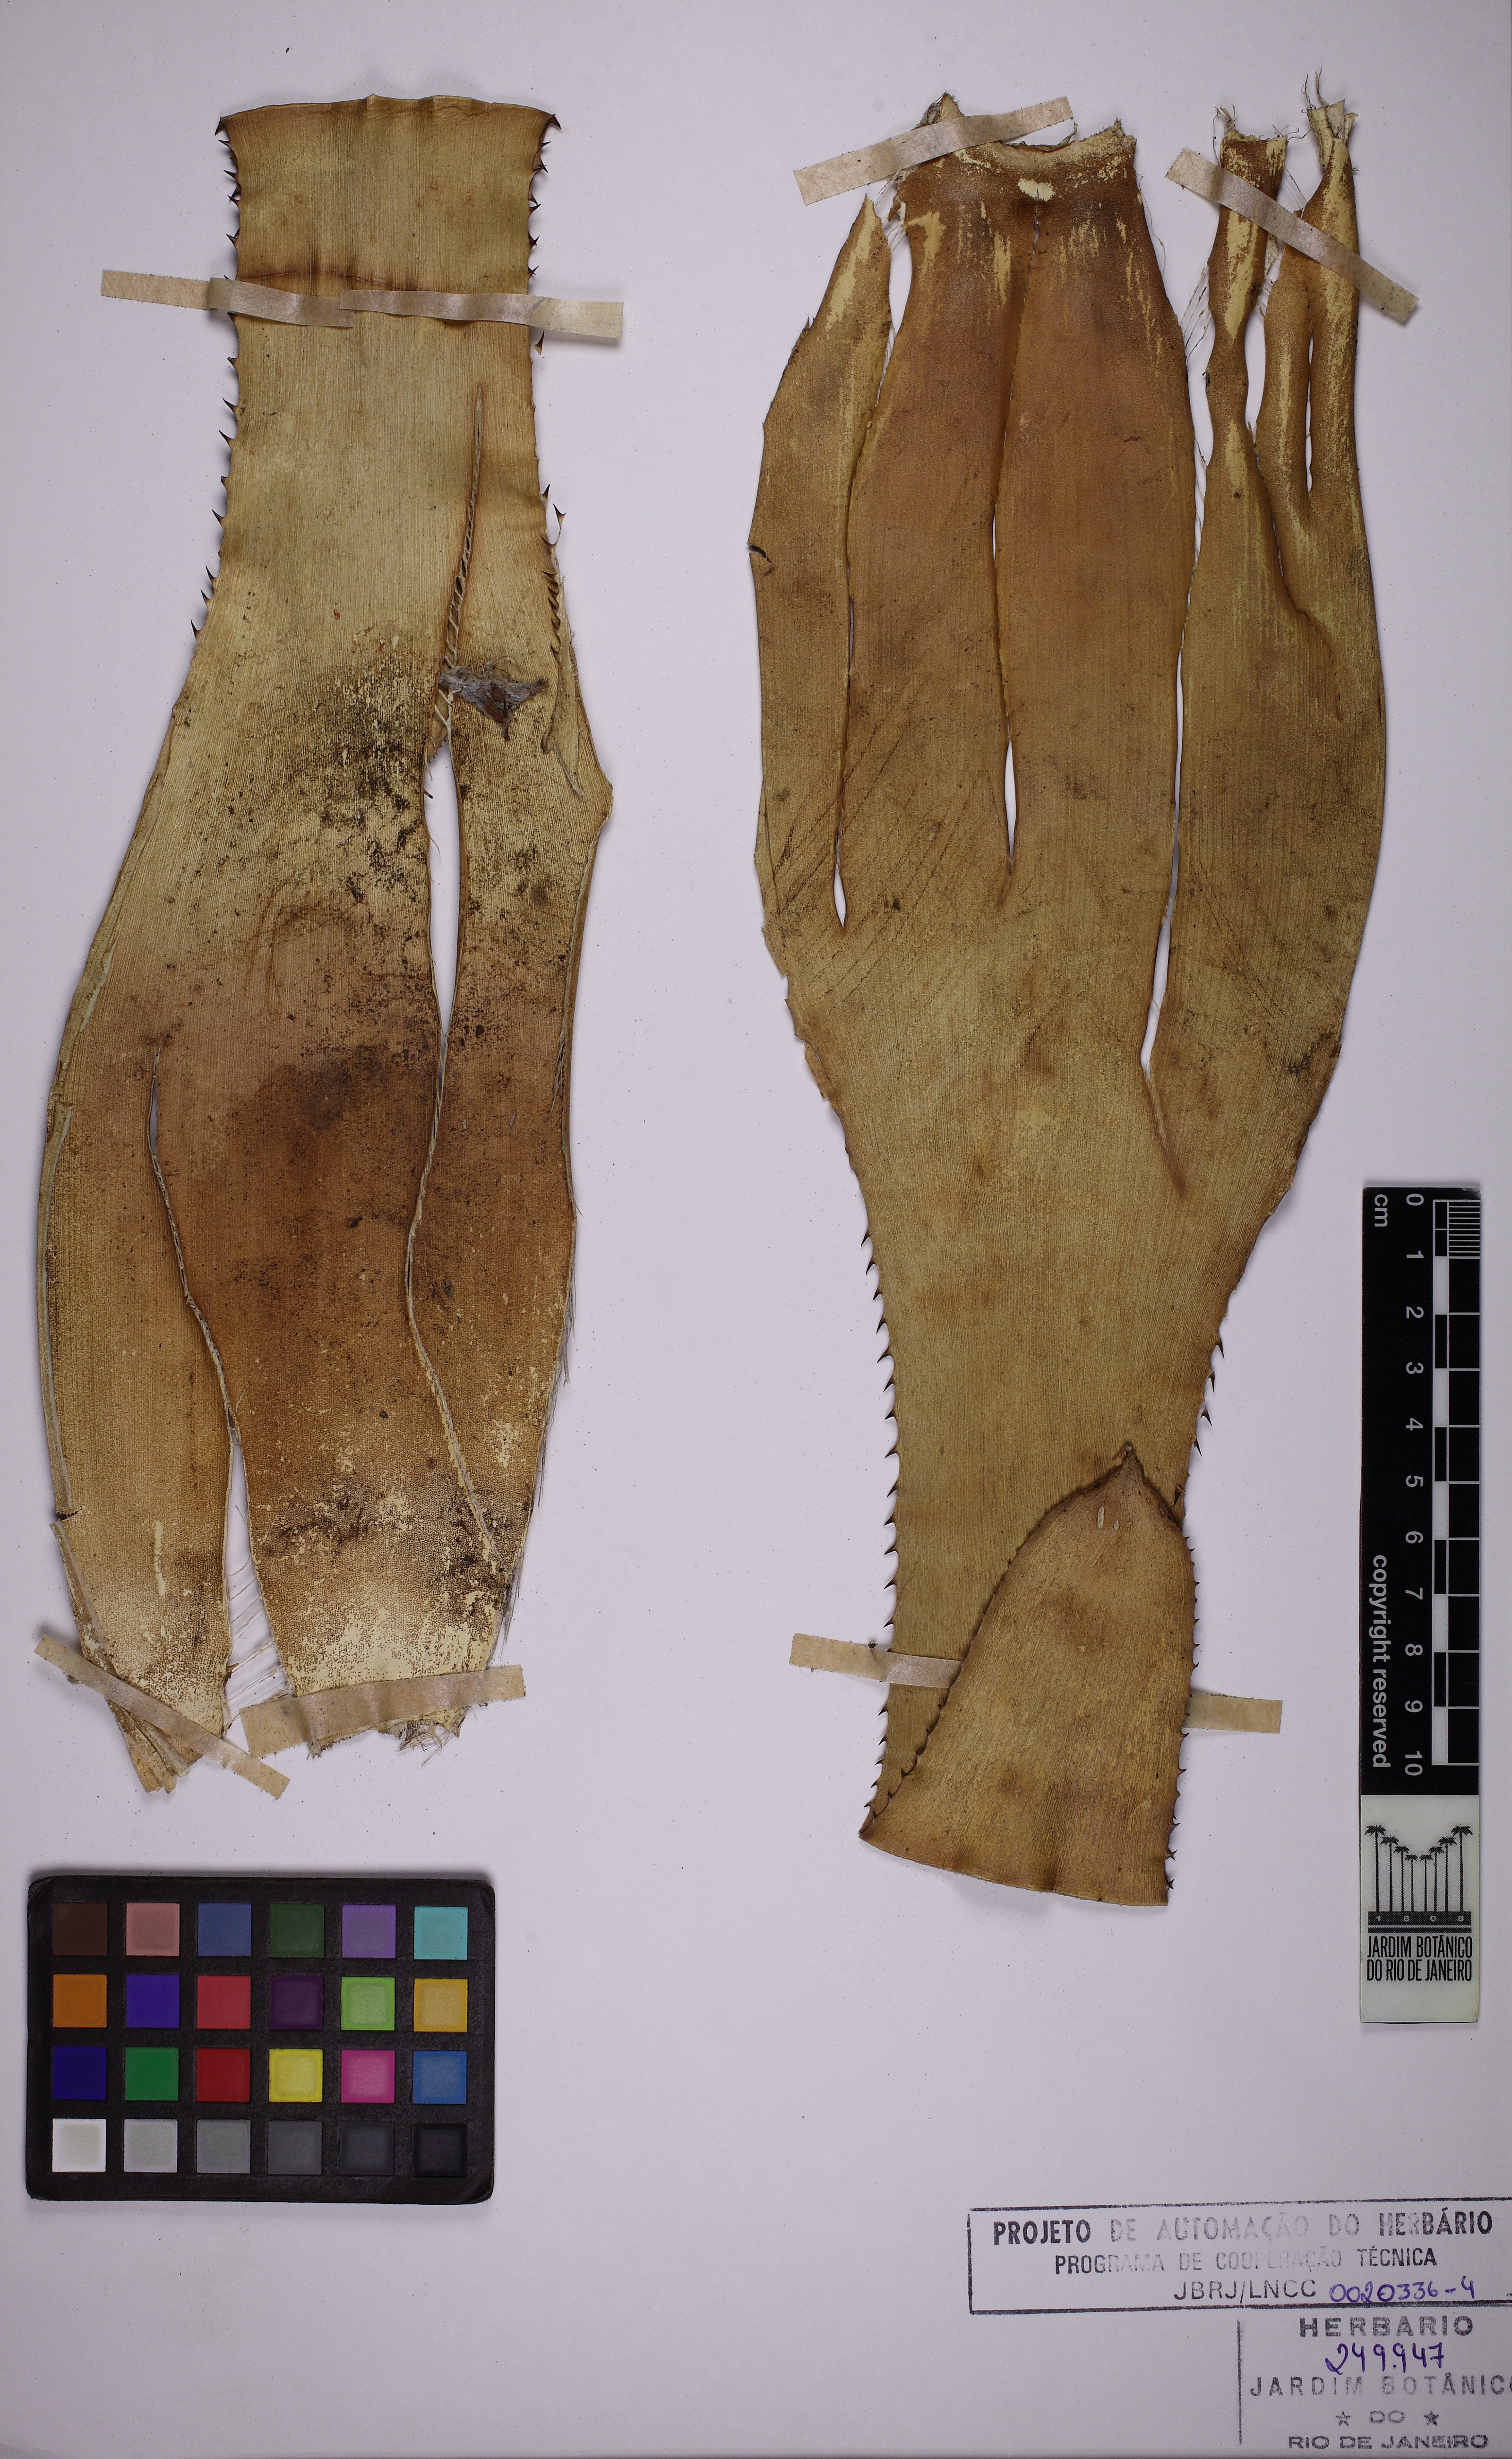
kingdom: Plantae
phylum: Tracheophyta
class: Liliopsida
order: Poales
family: Bromeliaceae
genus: Neoregelia
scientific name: Neoregelia cruenta
